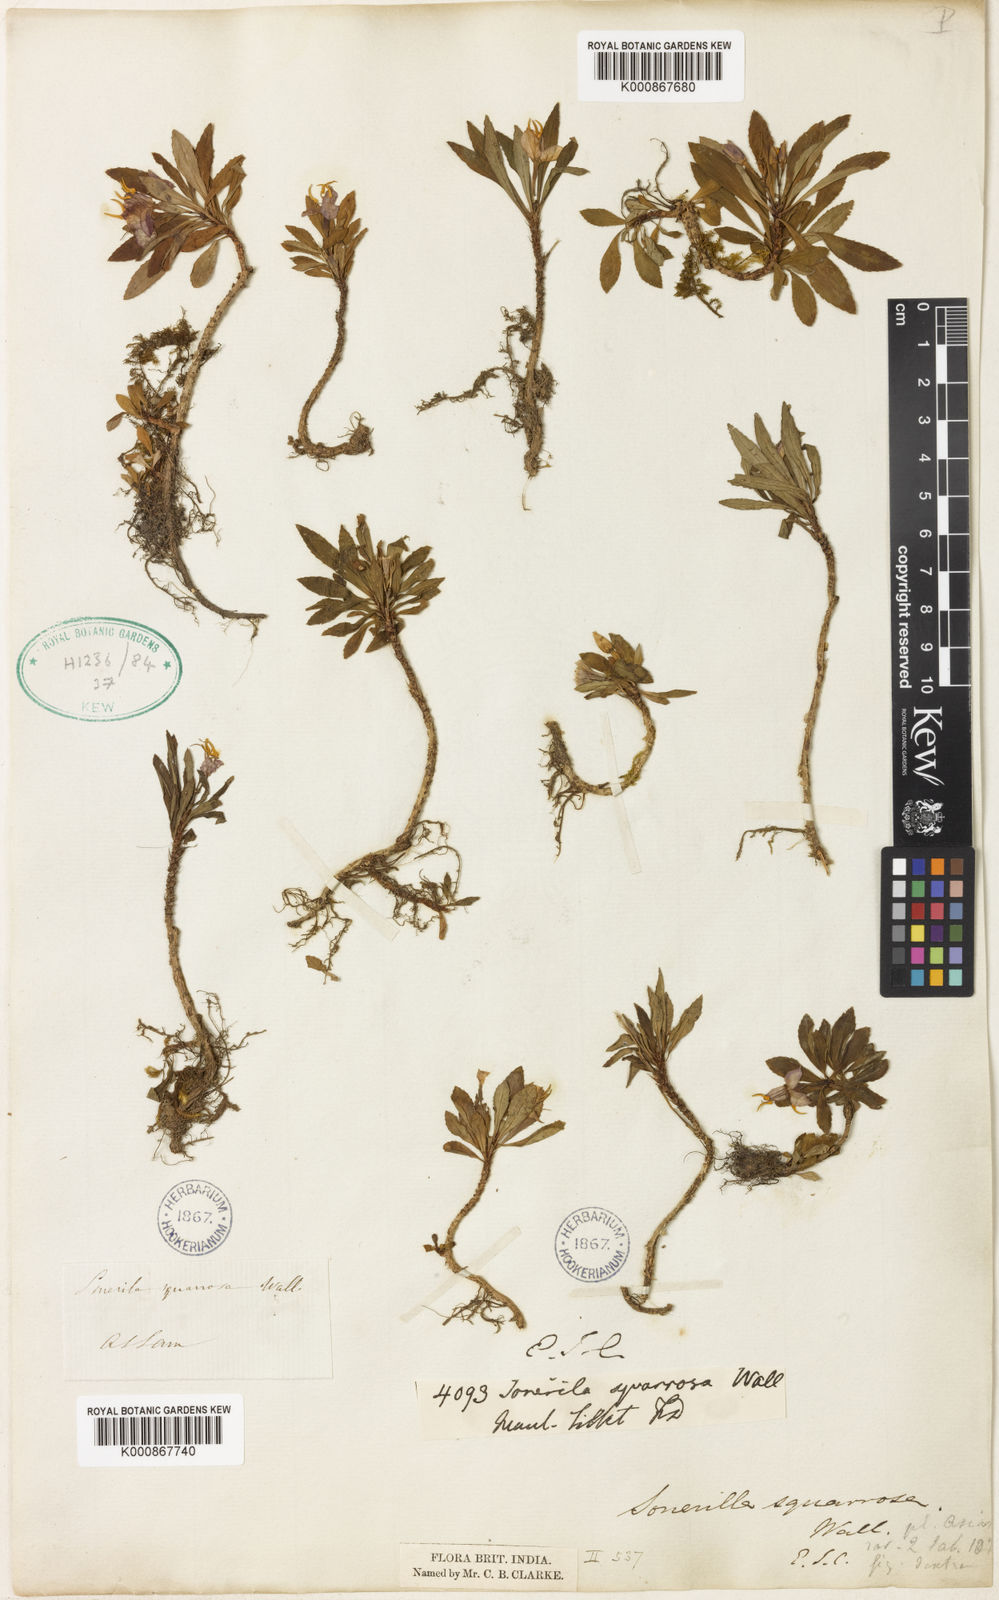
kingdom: Plantae
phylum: Tracheophyta
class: Magnoliopsida
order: Myrtales
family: Melastomataceae
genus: Sonerila
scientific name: Sonerila squarrosa
